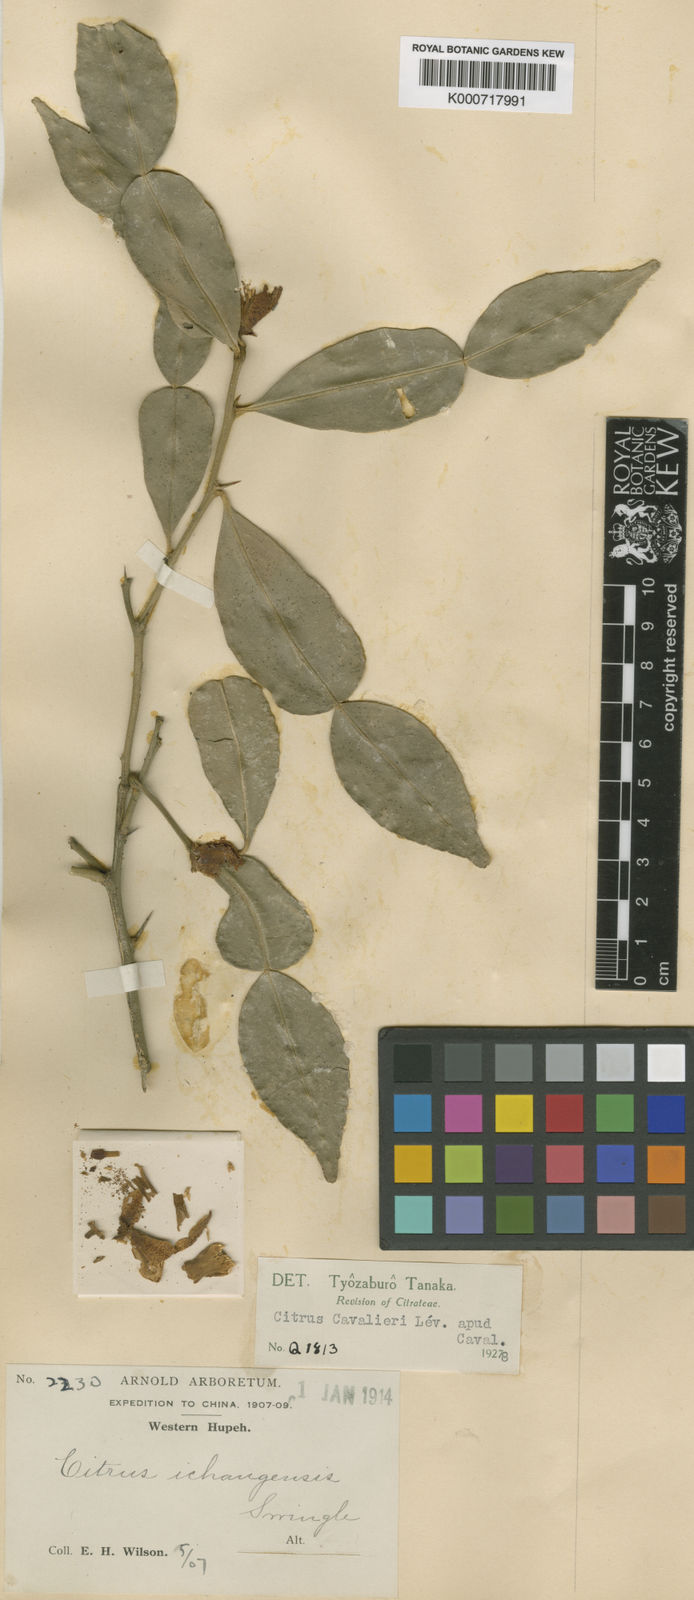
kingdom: Plantae
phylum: Tracheophyta
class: Magnoliopsida
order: Sapindales
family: Rutaceae
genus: Citrus
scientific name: Citrus cavaleriei
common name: Ichang-papeda
